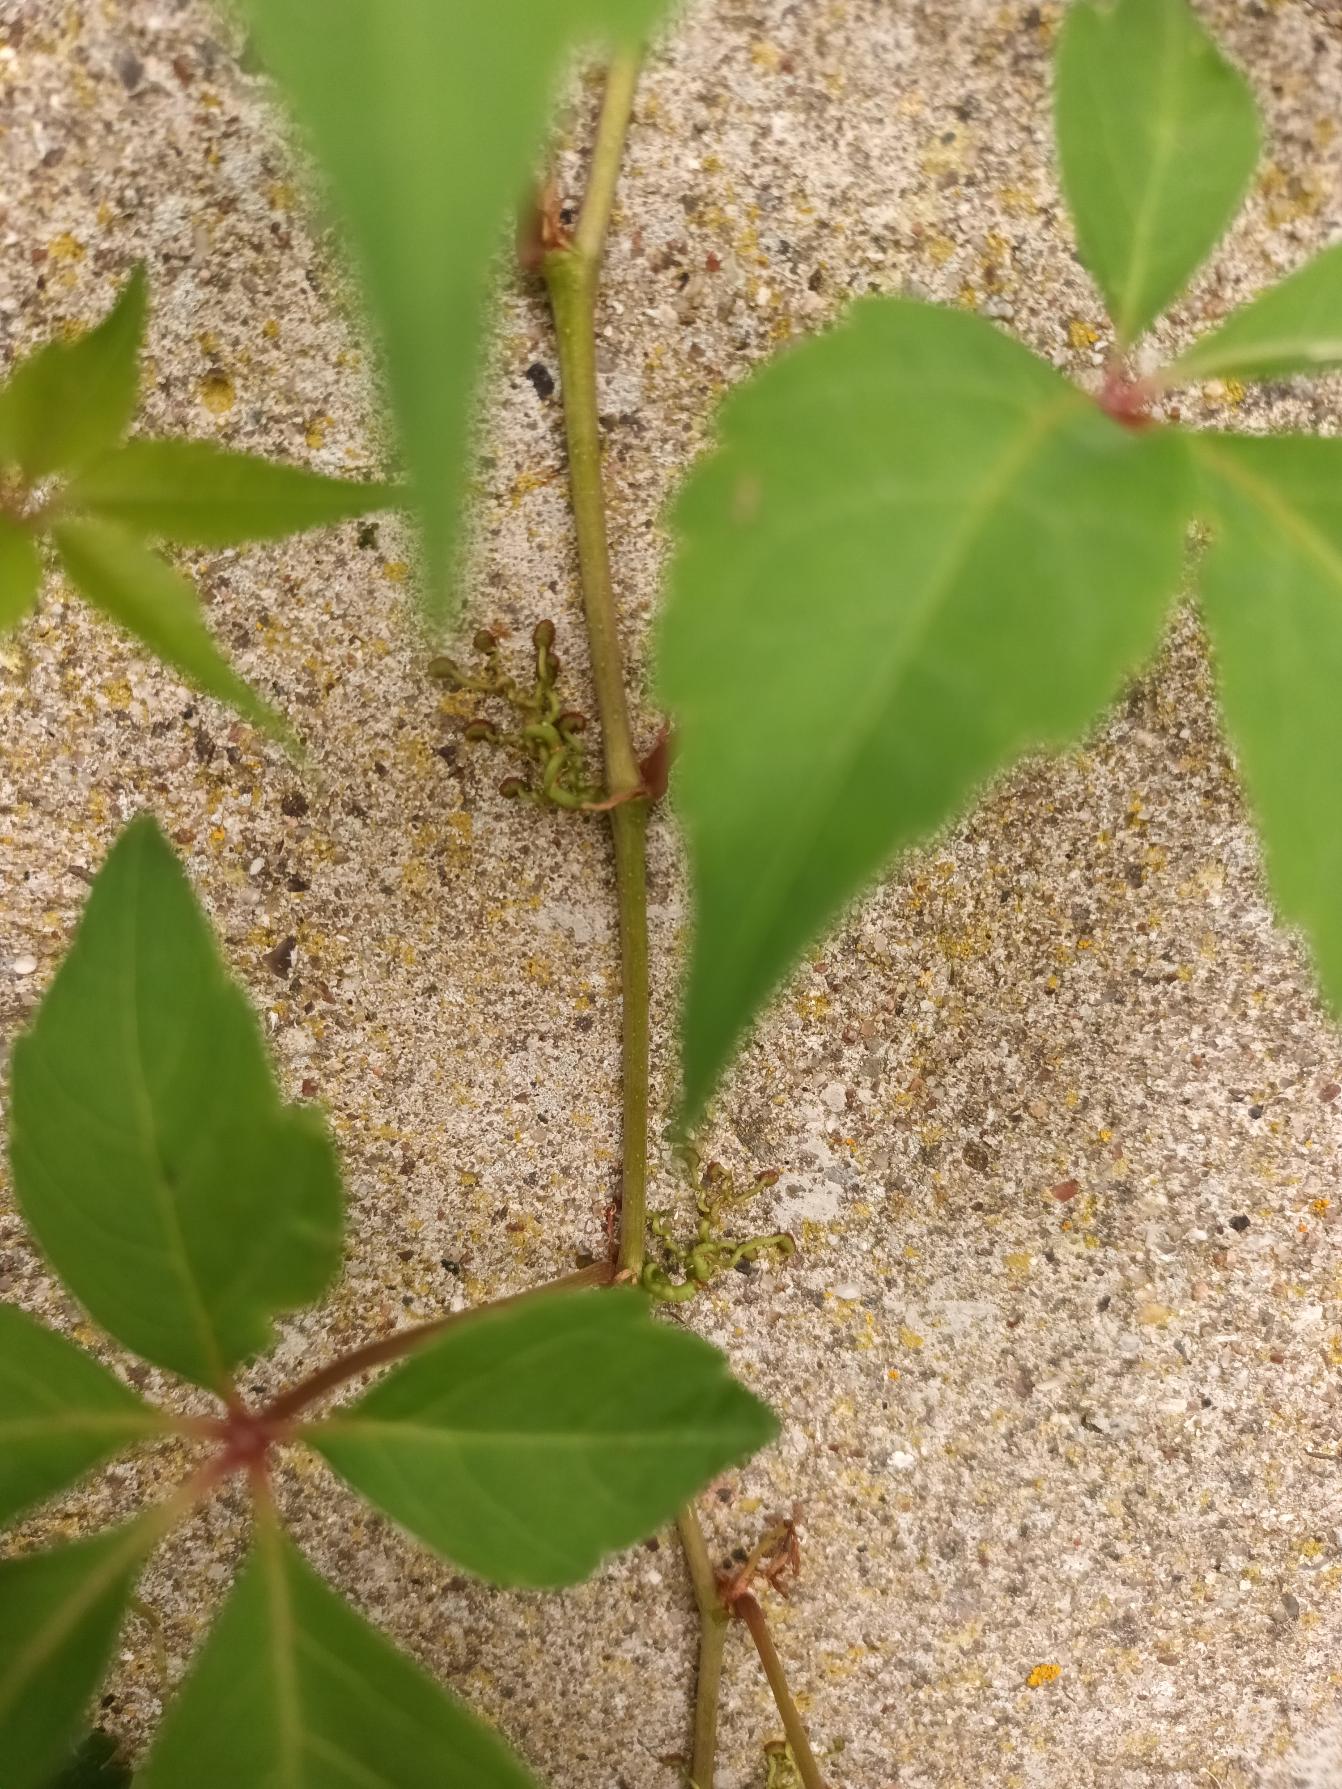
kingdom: Plantae
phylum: Tracheophyta
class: Magnoliopsida
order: Vitales
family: Vitaceae
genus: Parthenocissus
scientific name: Parthenocissus quinquefolia
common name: Klatre-vildvin
